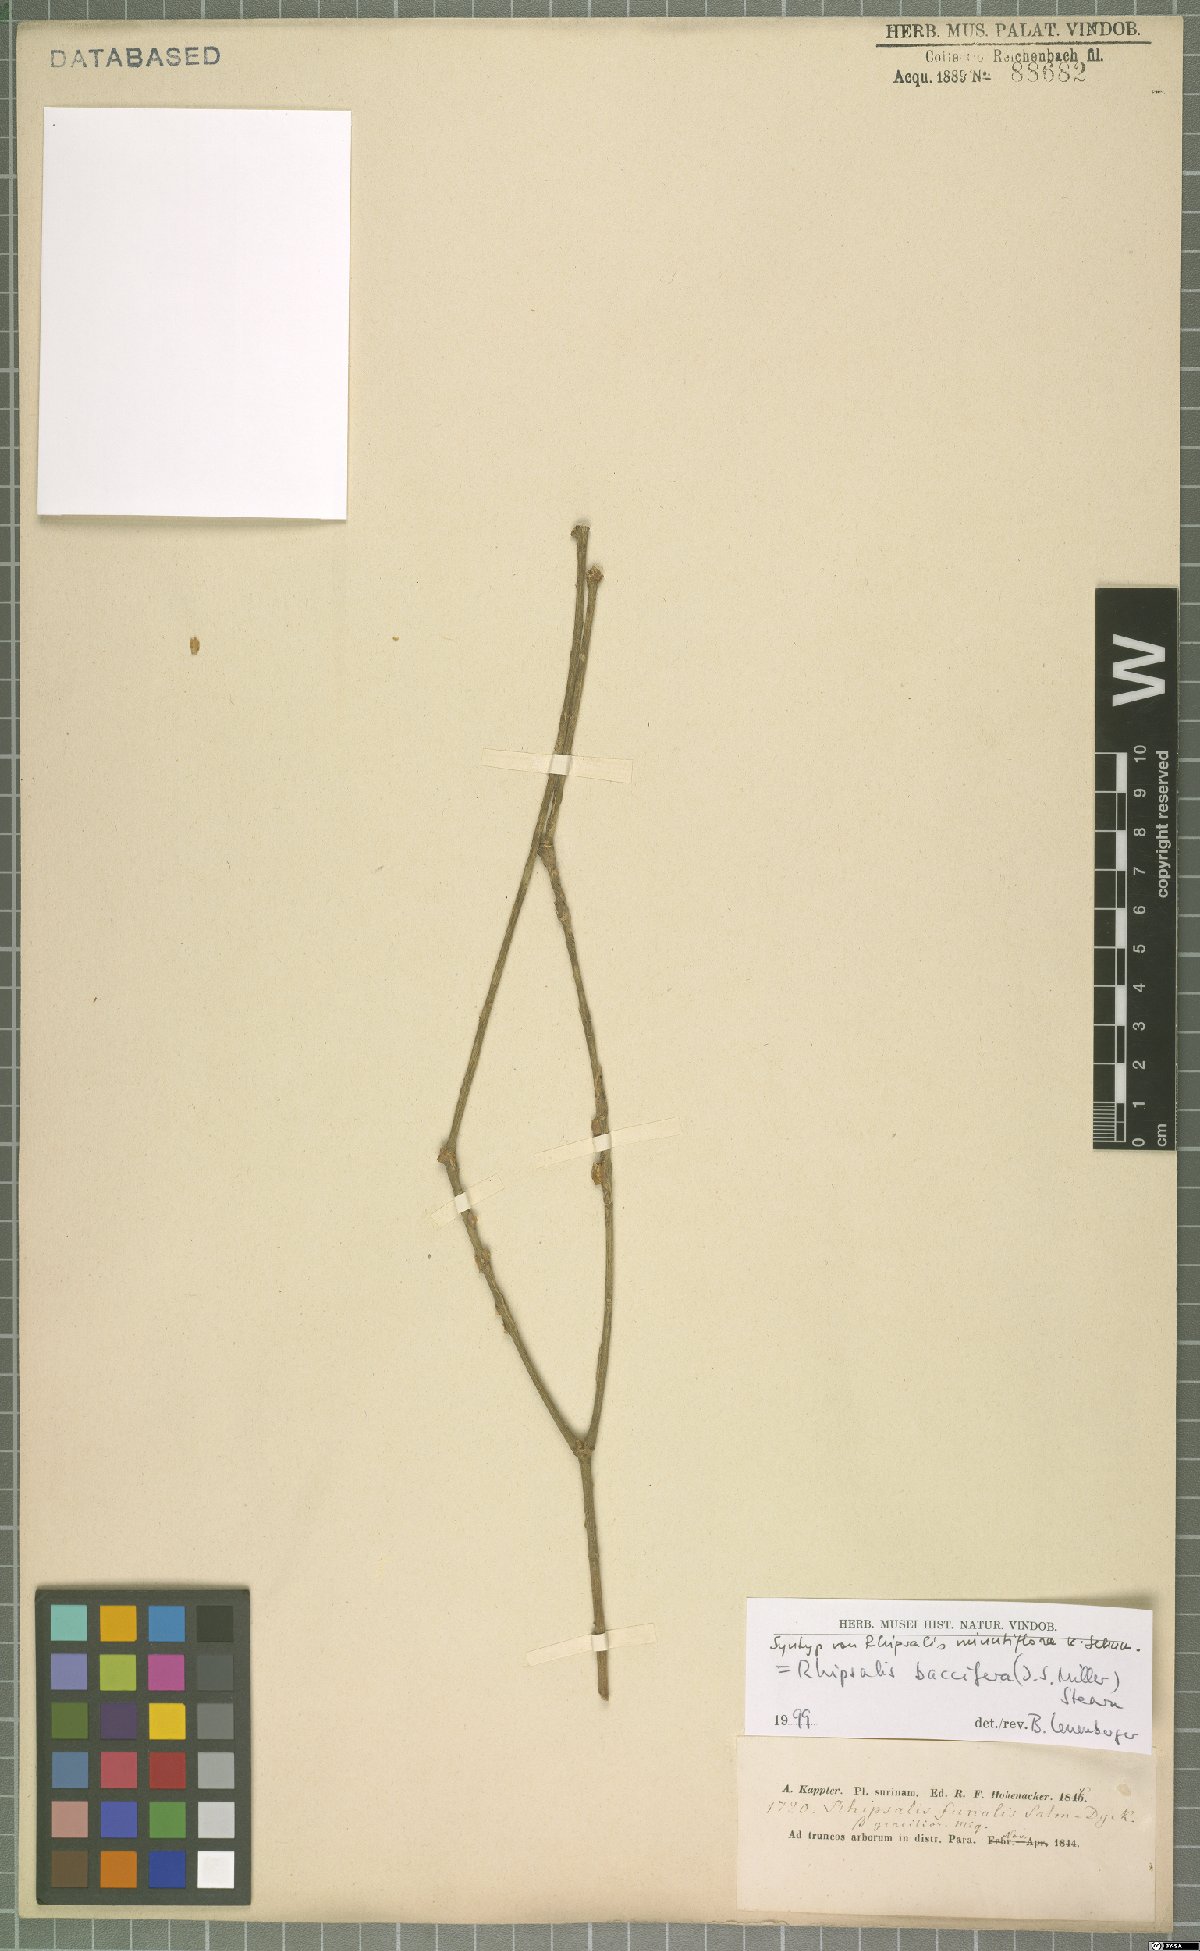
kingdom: Plantae
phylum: Tracheophyta
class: Magnoliopsida
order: Caryophyllales
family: Cactaceae
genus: Rhipsalis
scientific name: Rhipsalis baccifera
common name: Mistletoe cactus
